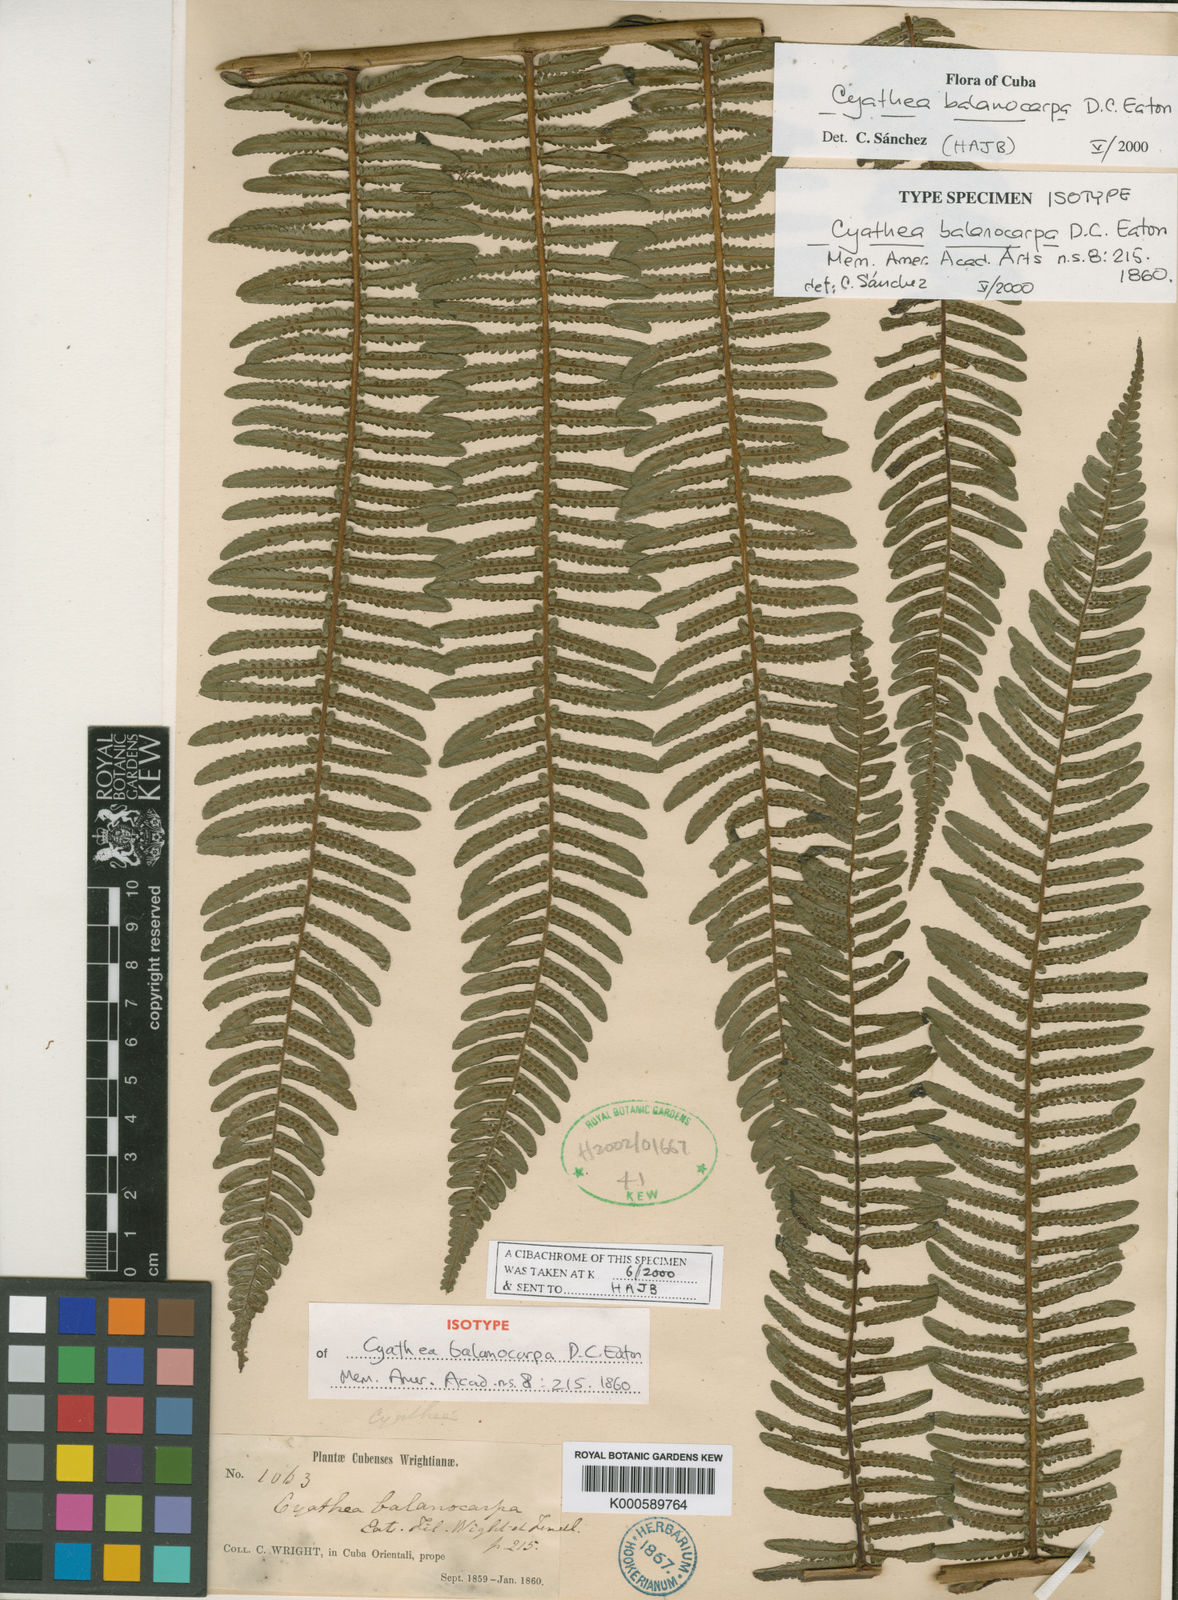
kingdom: Plantae
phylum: Tracheophyta
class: Polypodiopsida
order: Cyatheales
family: Cyatheaceae
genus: Alsophila
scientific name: Alsophila balanocarpa
